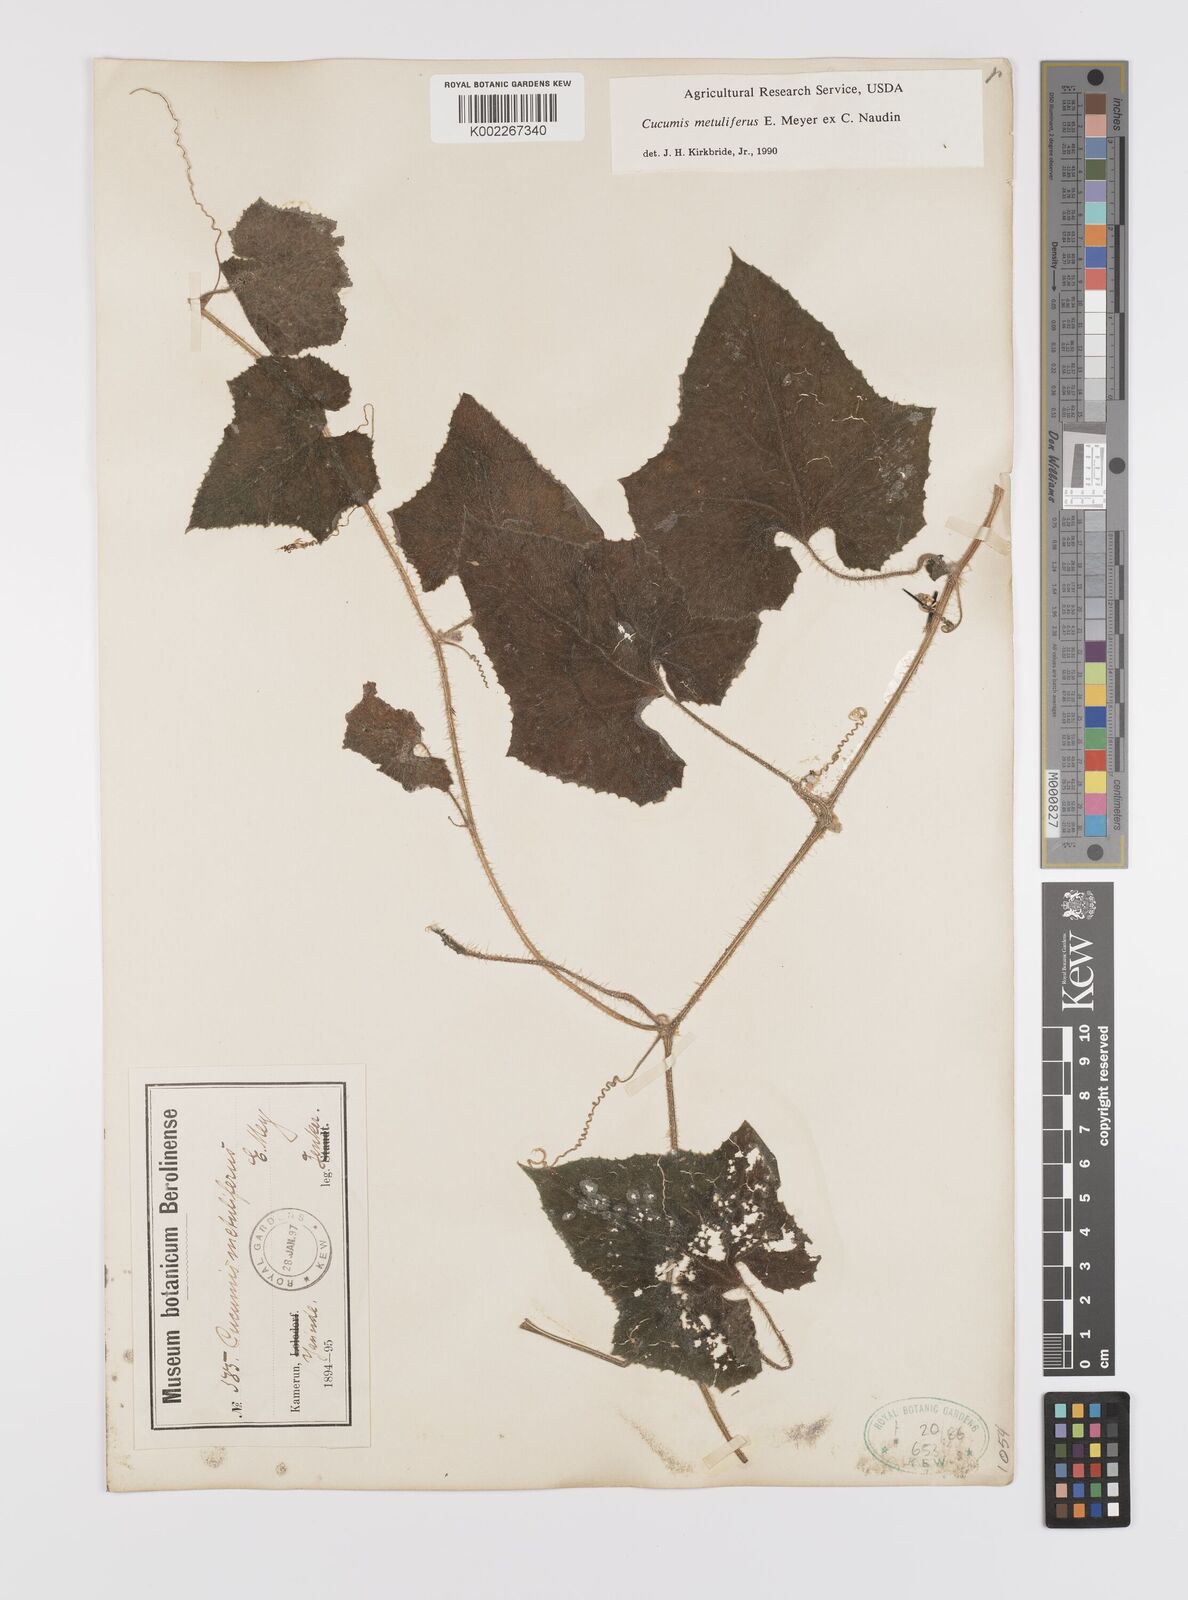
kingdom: Plantae
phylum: Tracheophyta
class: Magnoliopsida
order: Cucurbitales
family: Cucurbitaceae
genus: Cucumis
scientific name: Cucumis metuliferus
